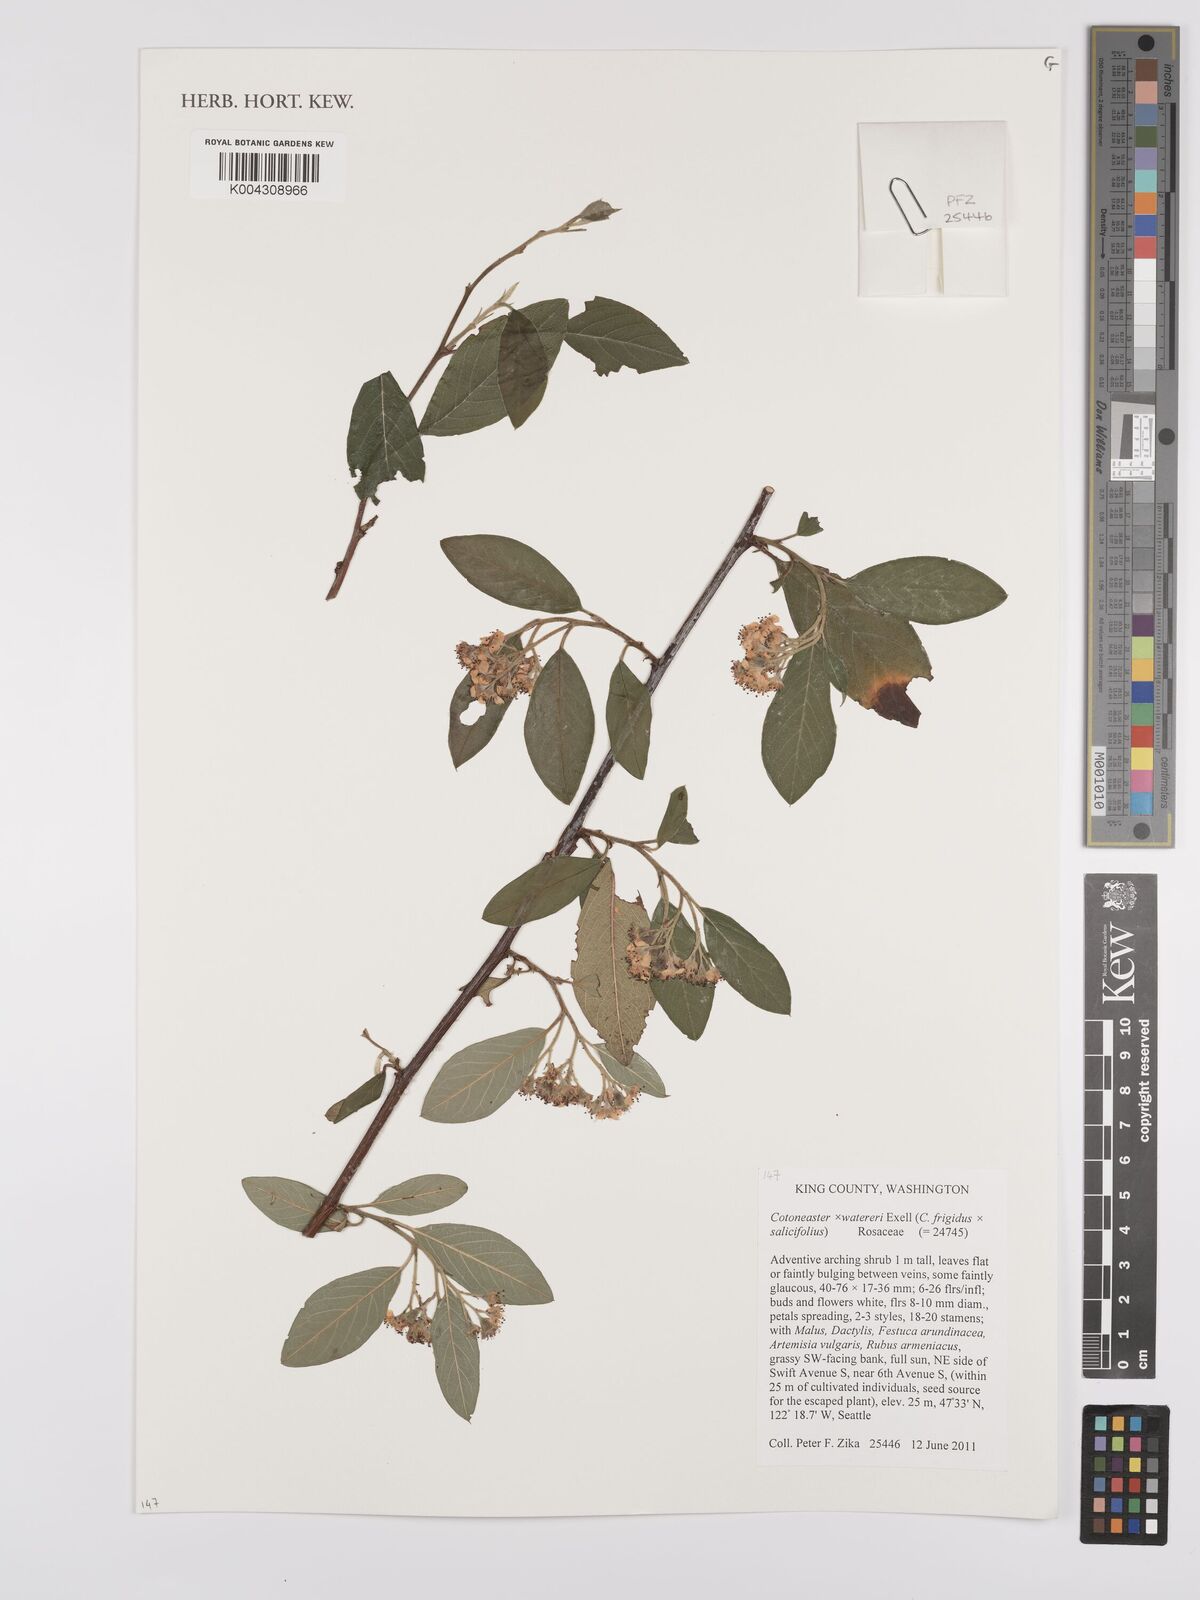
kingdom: Plantae
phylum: Tracheophyta
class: Magnoliopsida
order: Rosales
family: Rosaceae
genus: Cotoneaster
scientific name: Cotoneaster watereri
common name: Waterer's cotoneaster
